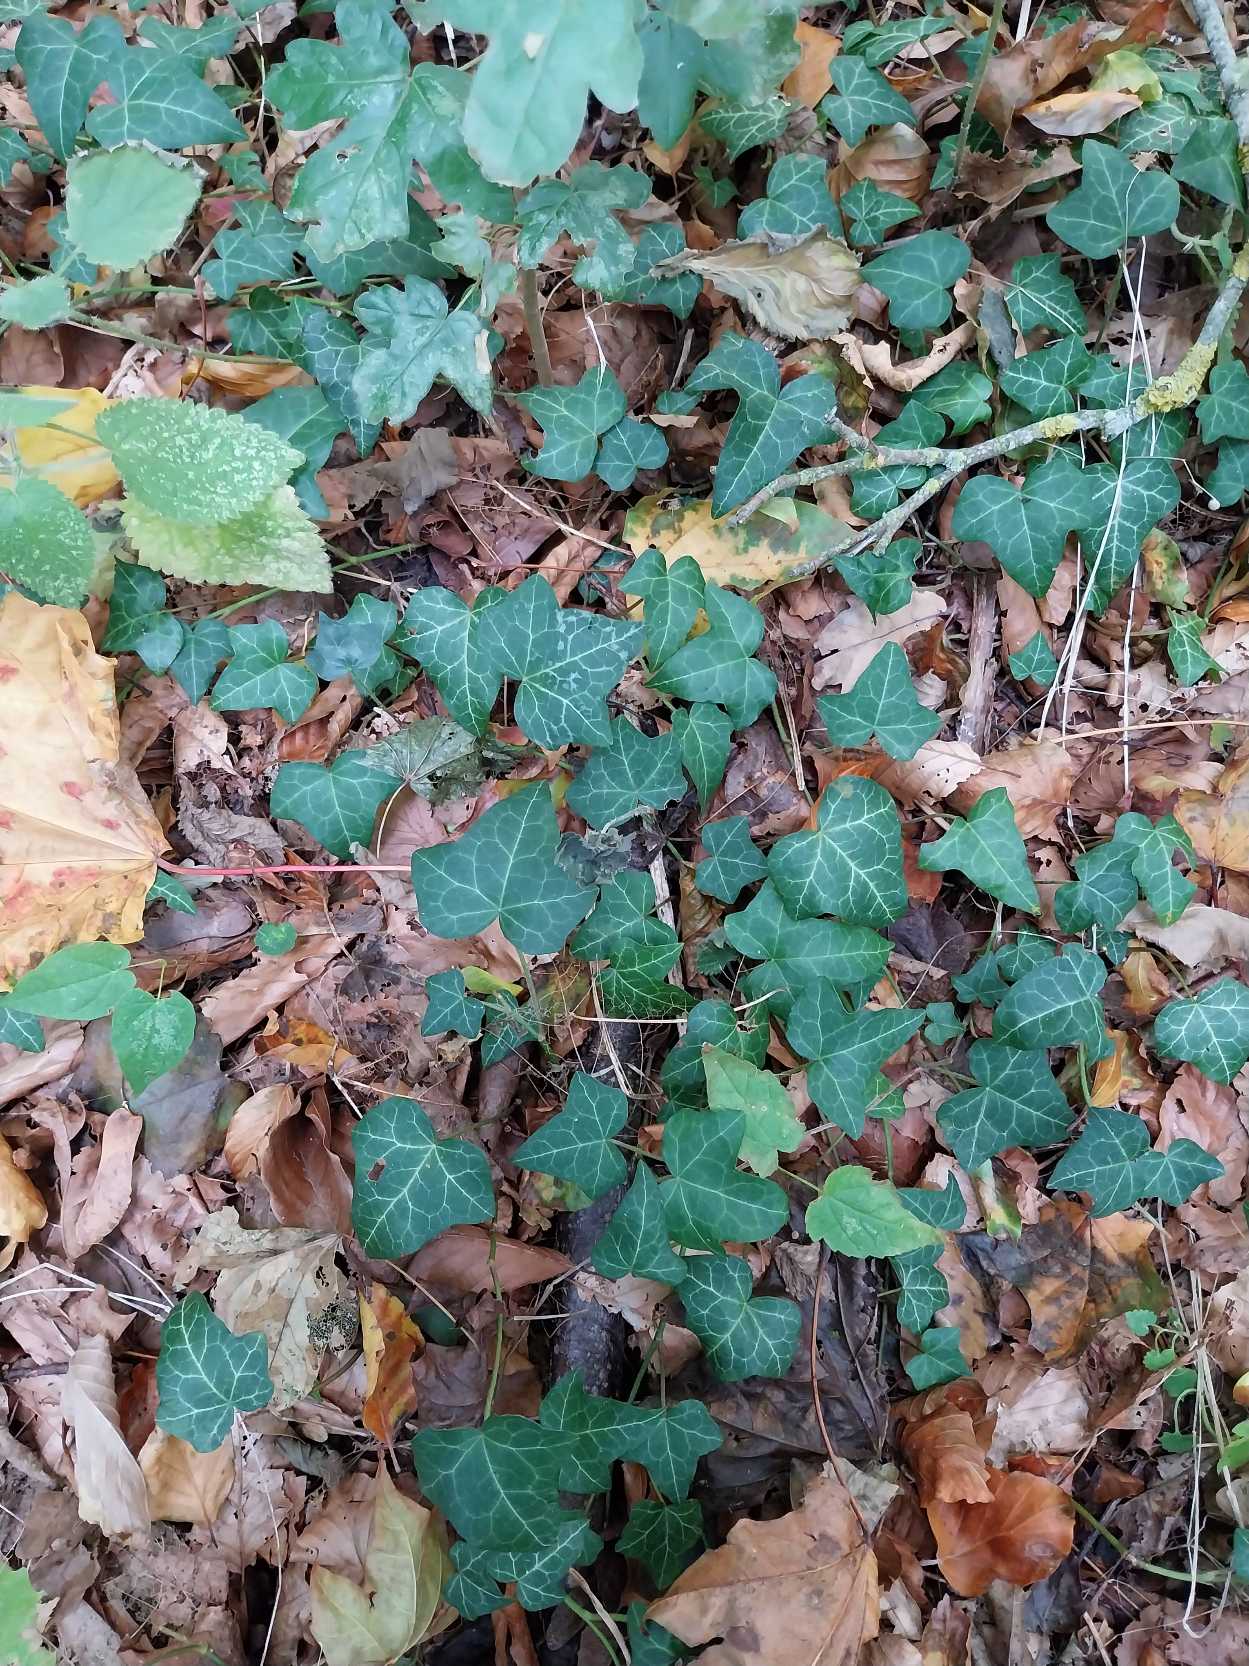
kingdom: Plantae
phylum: Tracheophyta
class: Magnoliopsida
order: Apiales
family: Araliaceae
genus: Hedera
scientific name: Hedera helix
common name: Vedbend
